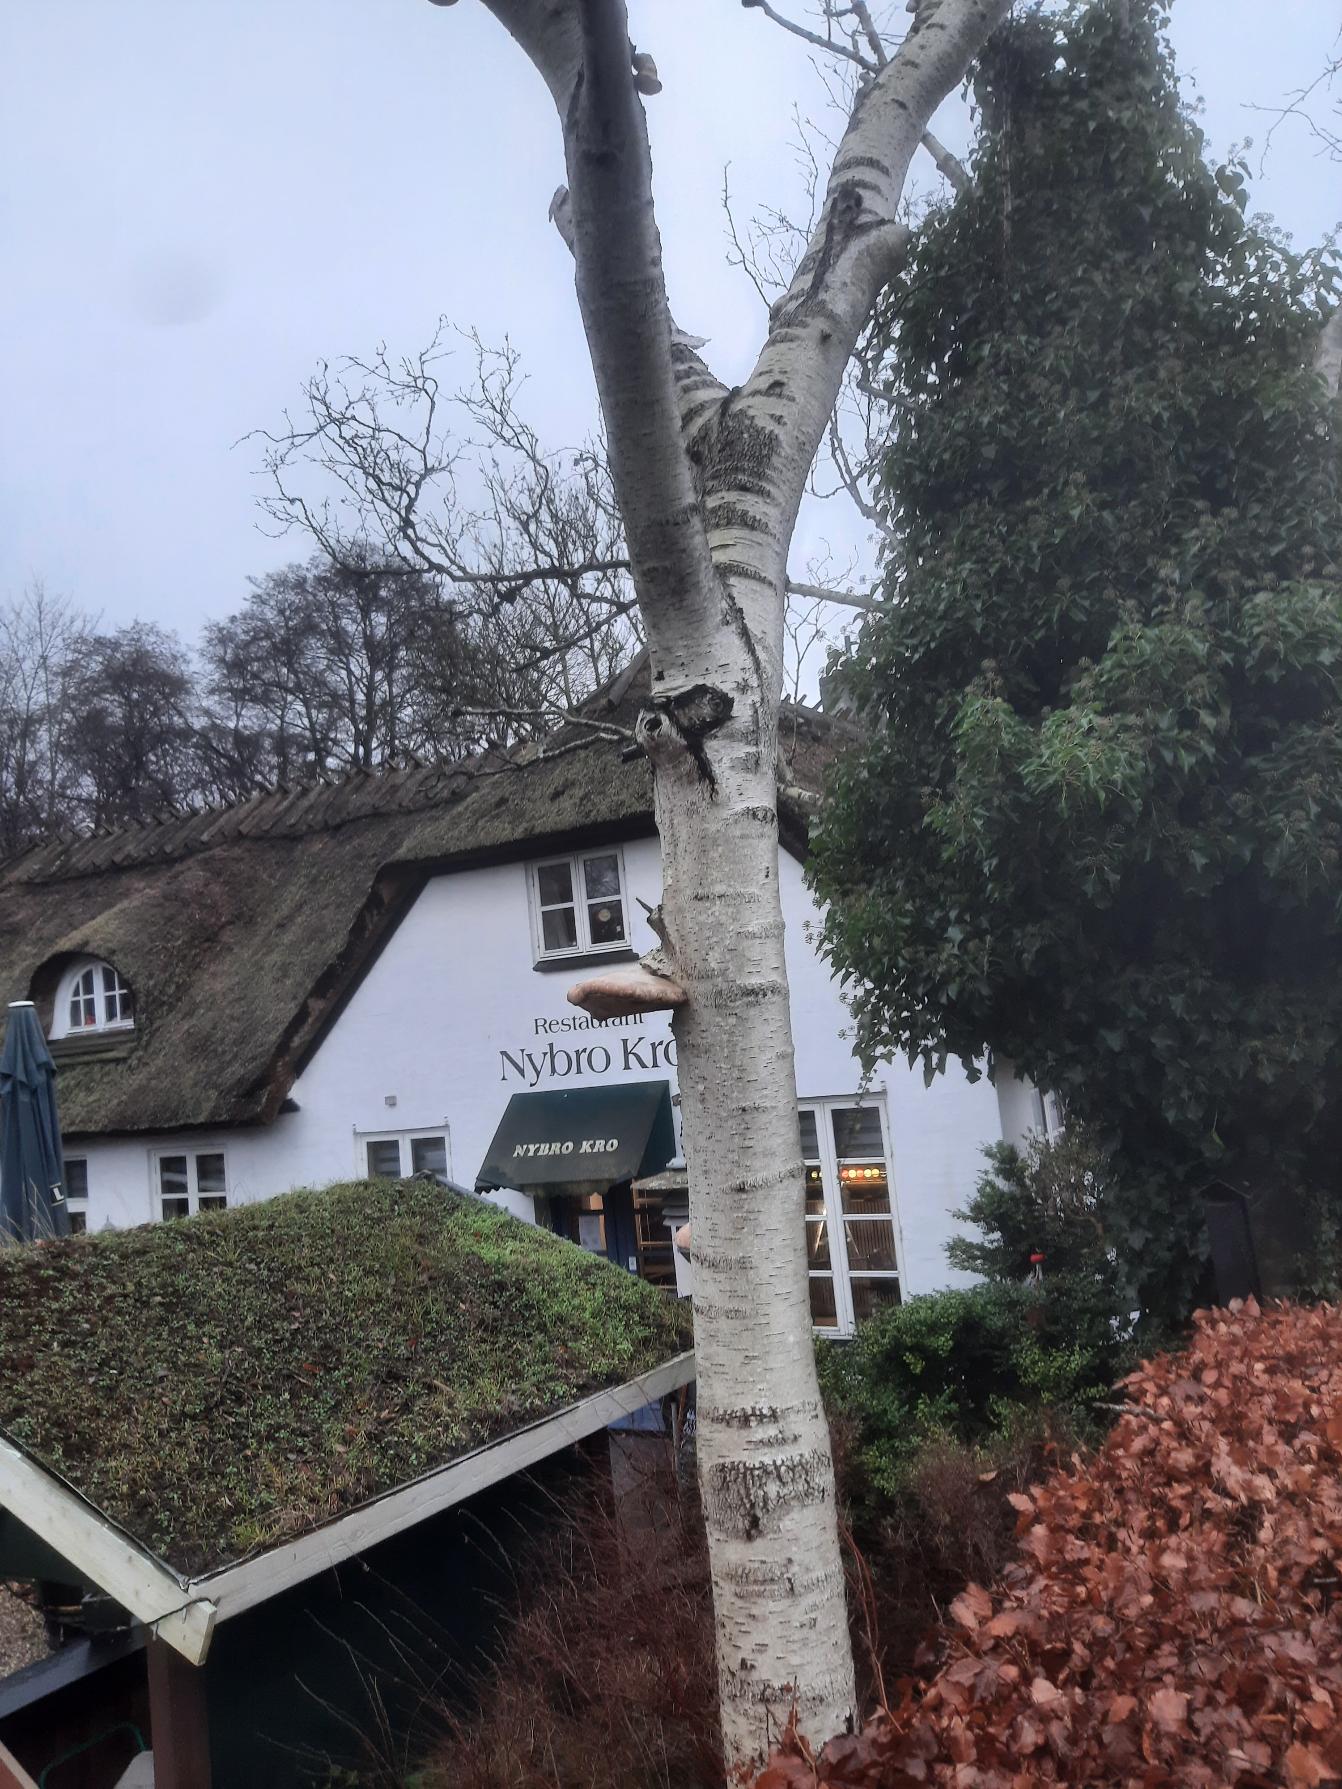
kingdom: Fungi
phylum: Basidiomycota
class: Agaricomycetes
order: Polyporales
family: Fomitopsidaceae
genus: Fomitopsis
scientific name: Fomitopsis betulina
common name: Birkeporesvamp
